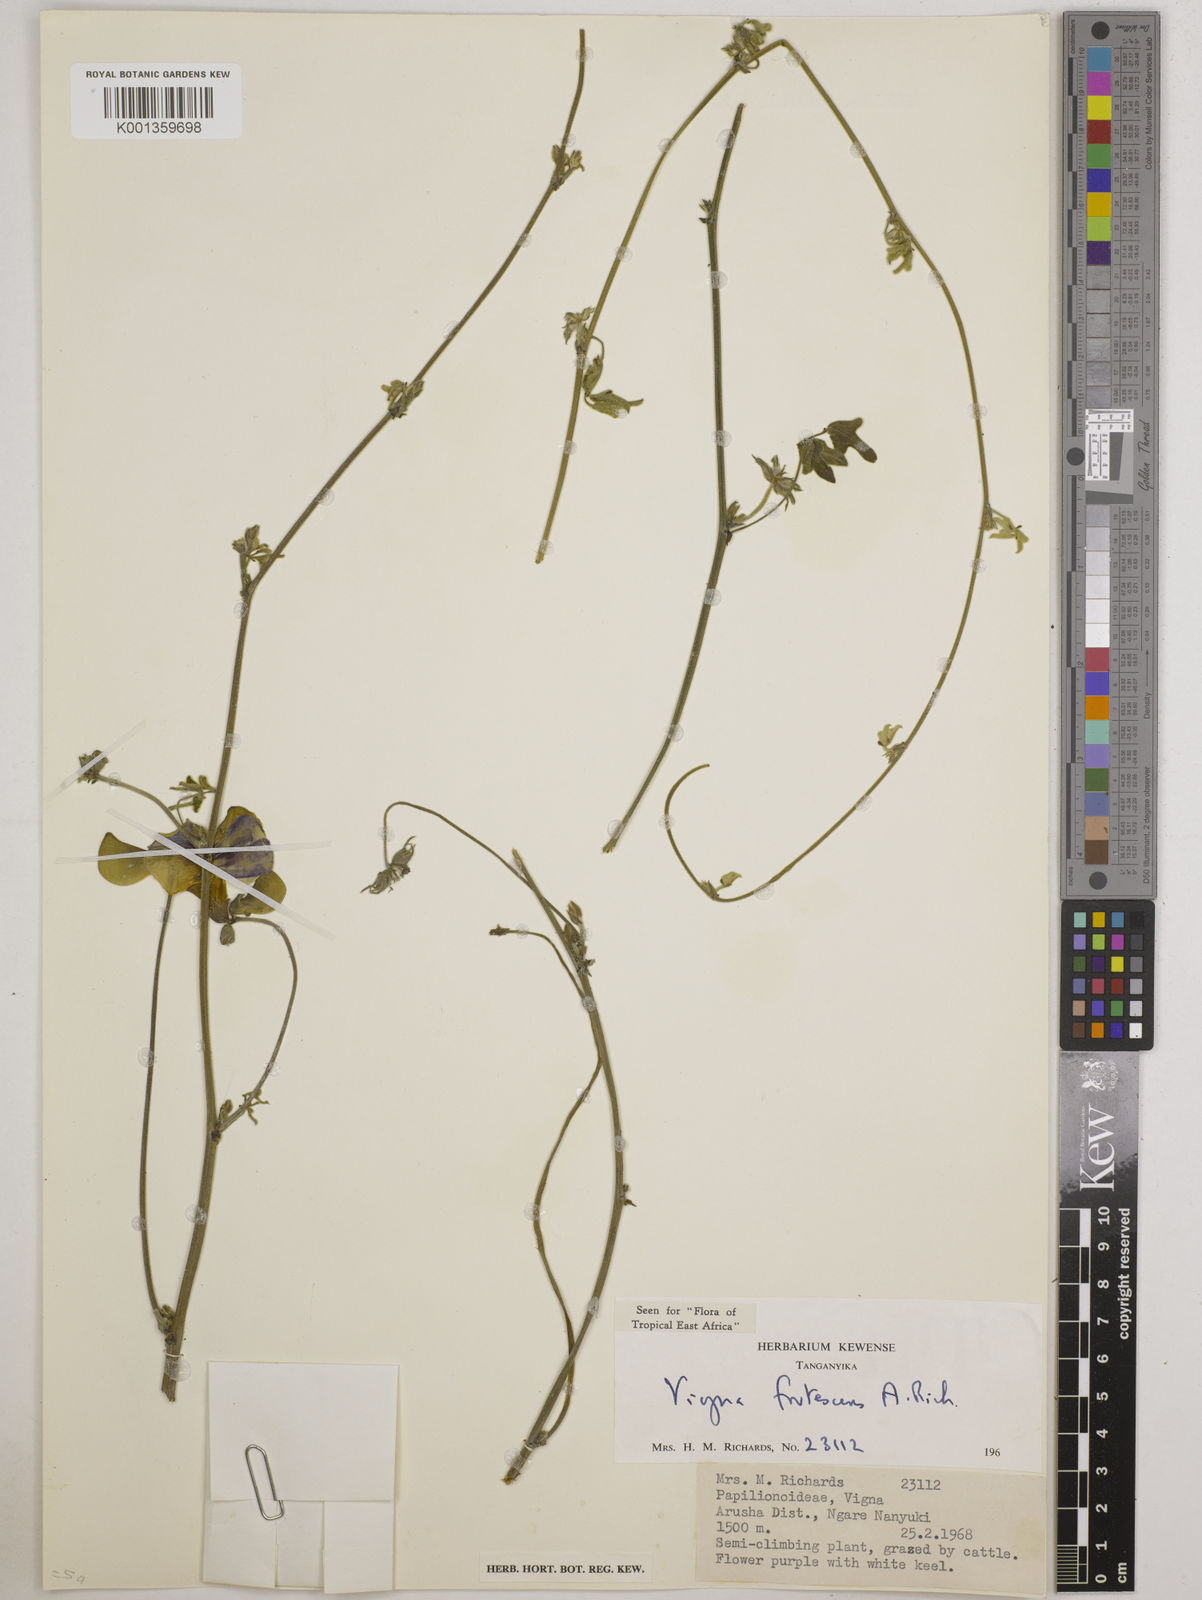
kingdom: Plantae
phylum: Tracheophyta
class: Magnoliopsida
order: Fabales
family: Fabaceae
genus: Vigna
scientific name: Vigna frutescens
